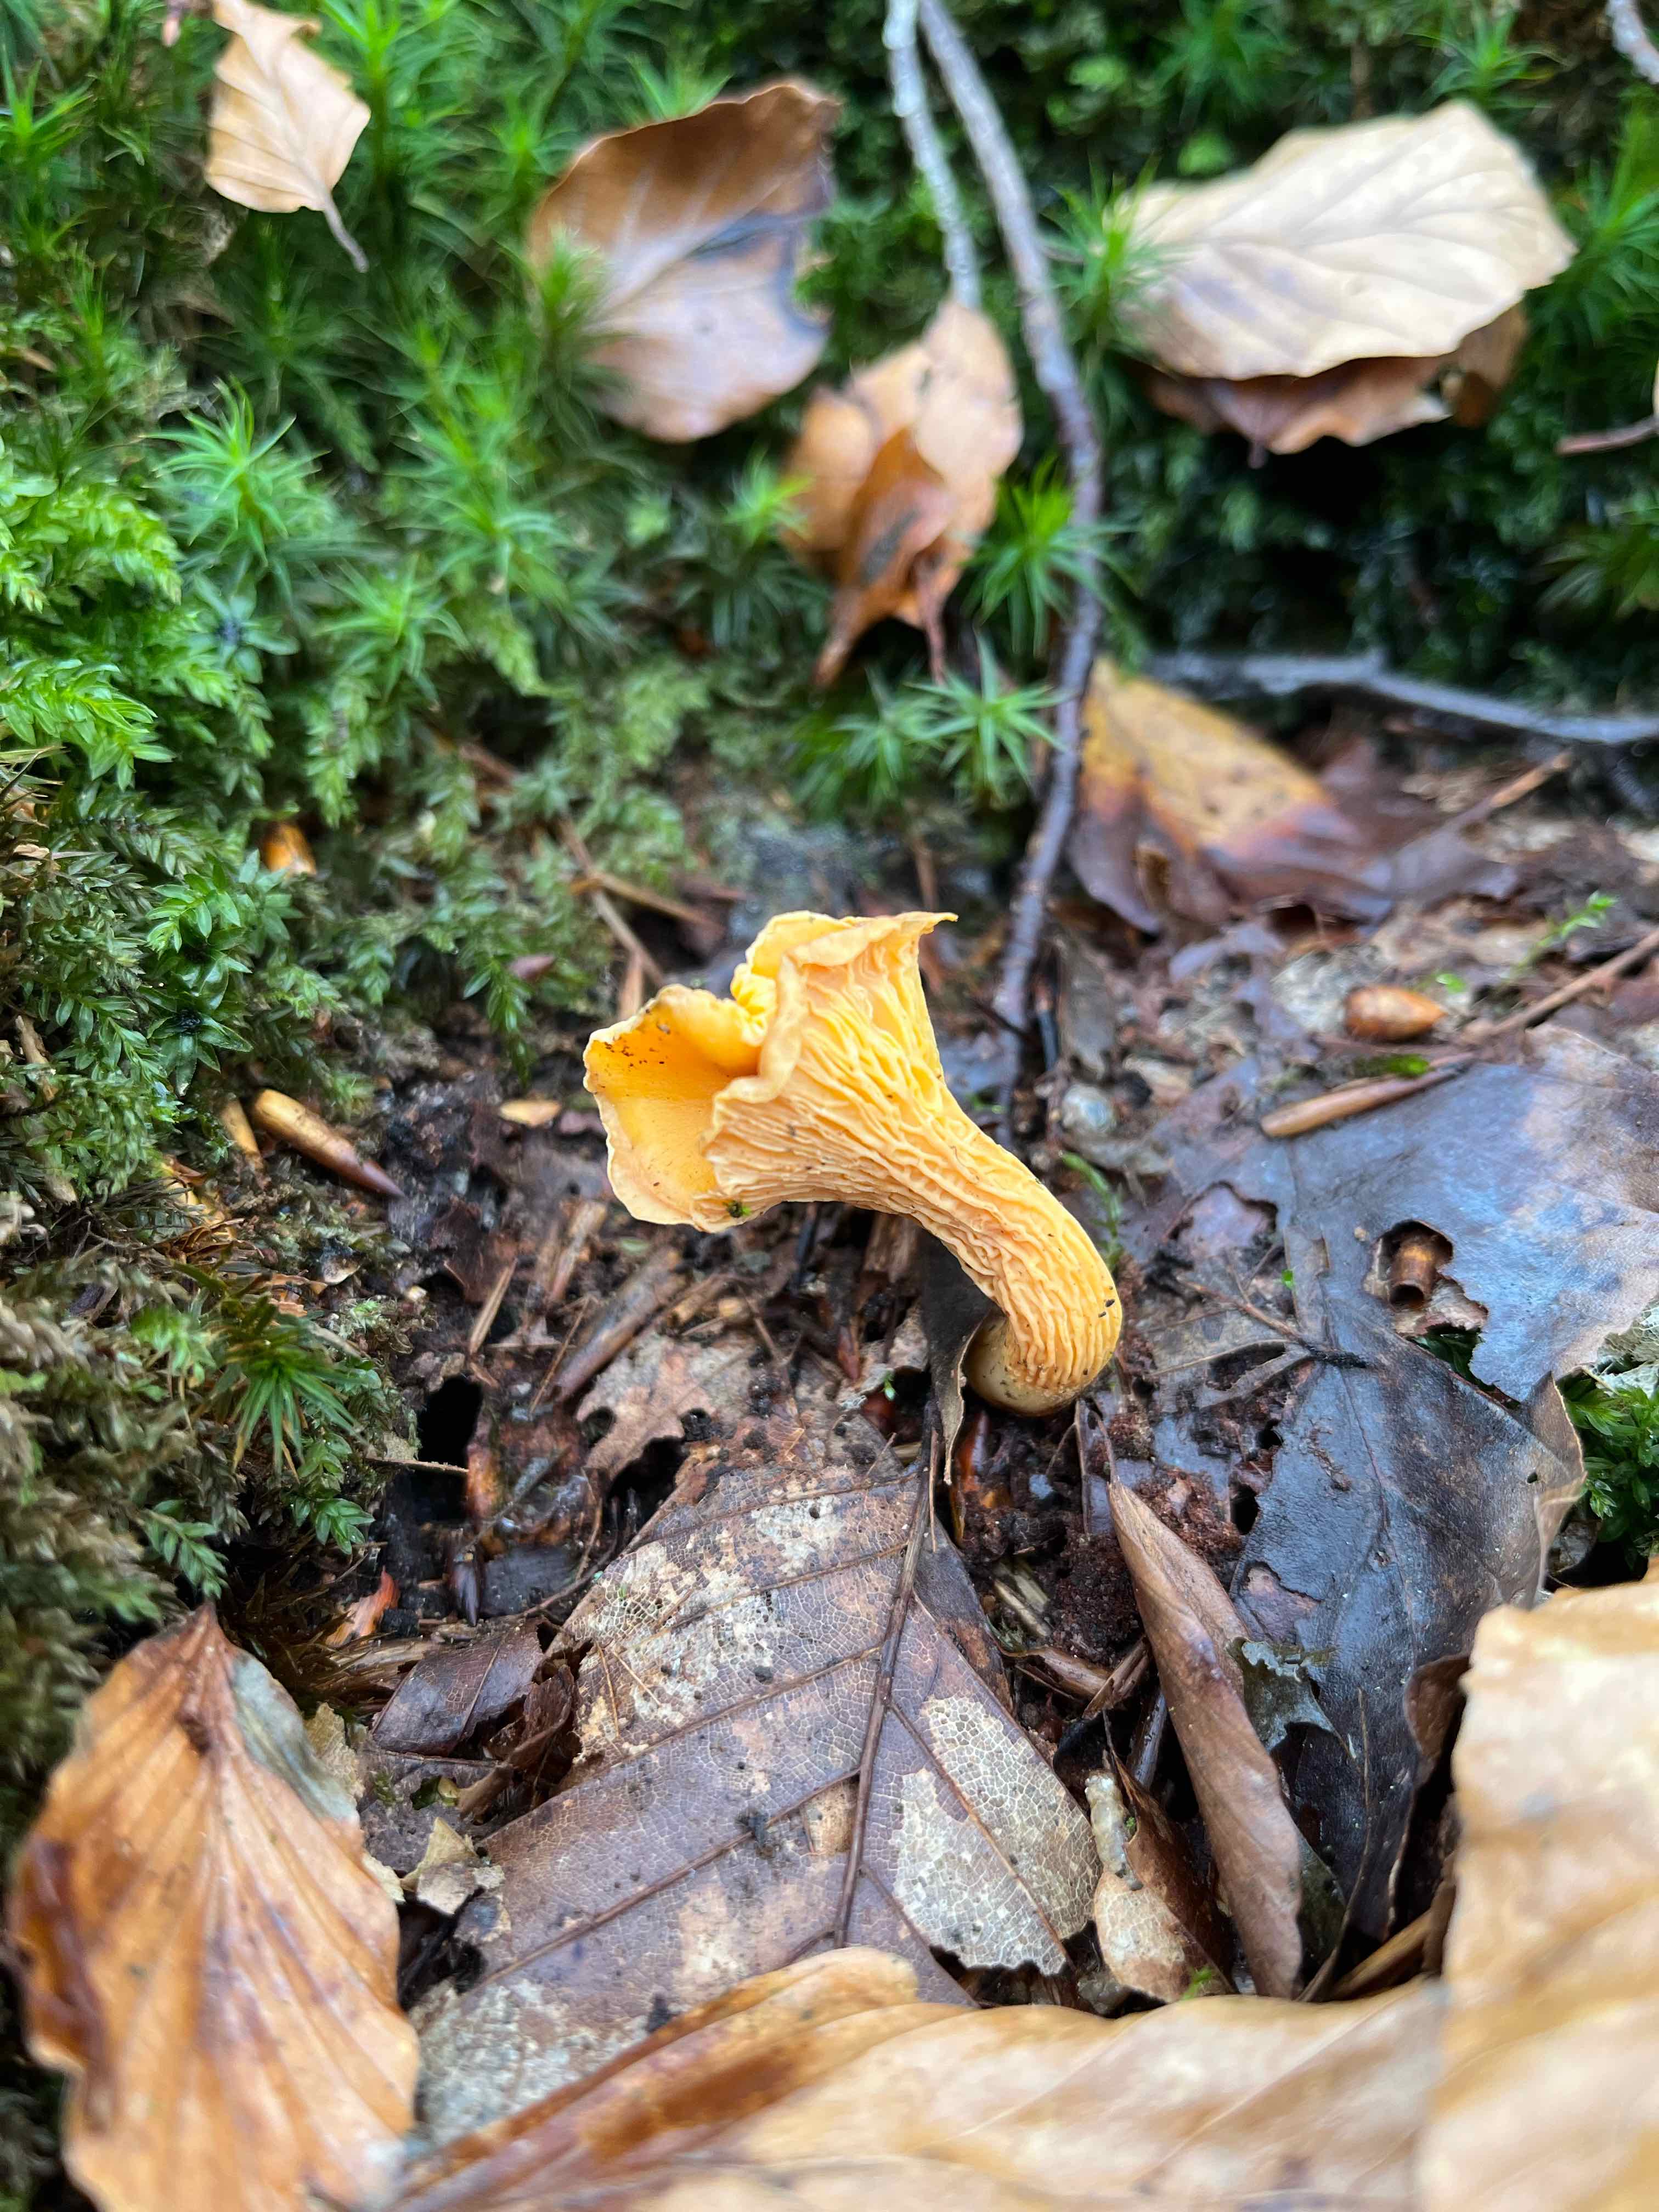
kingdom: Fungi
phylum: Basidiomycota
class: Agaricomycetes
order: Cantharellales
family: Hydnaceae
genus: Cantharellus
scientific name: Cantharellus cibarius
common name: almindelig kantarel
